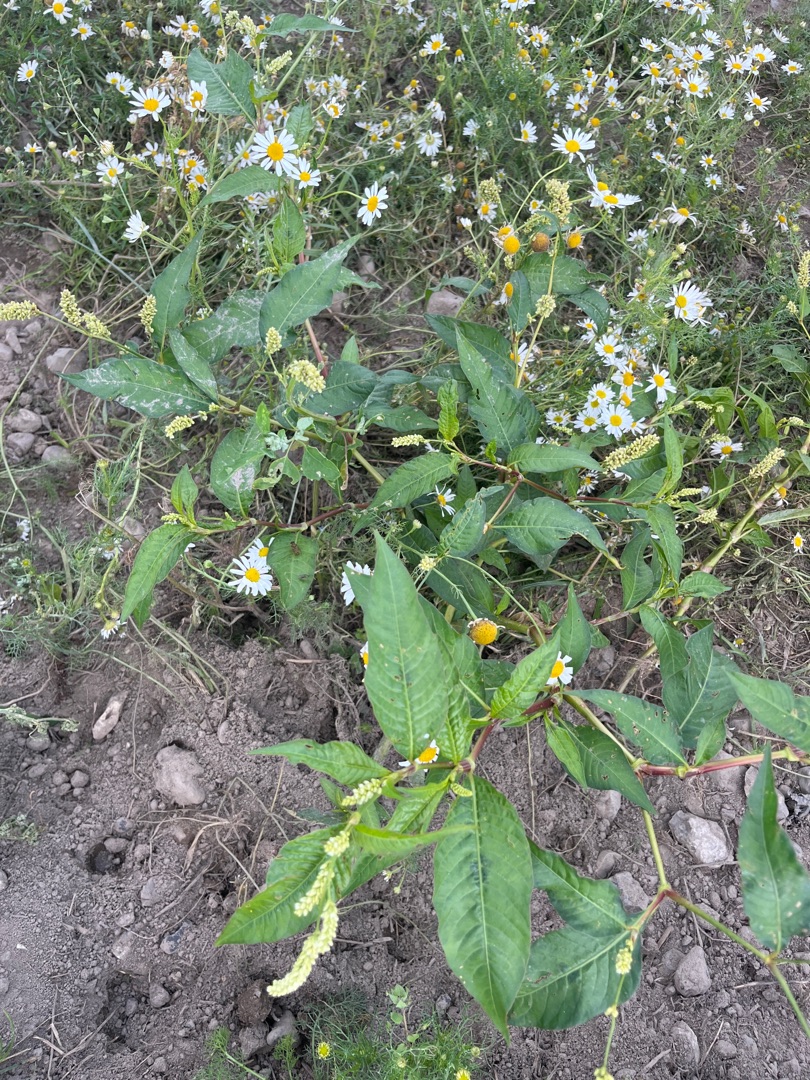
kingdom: Plantae
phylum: Tracheophyta
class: Magnoliopsida
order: Caryophyllales
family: Polygonaceae
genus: Persicaria
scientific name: Persicaria
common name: Pileurt (Persicaria-slægten)
